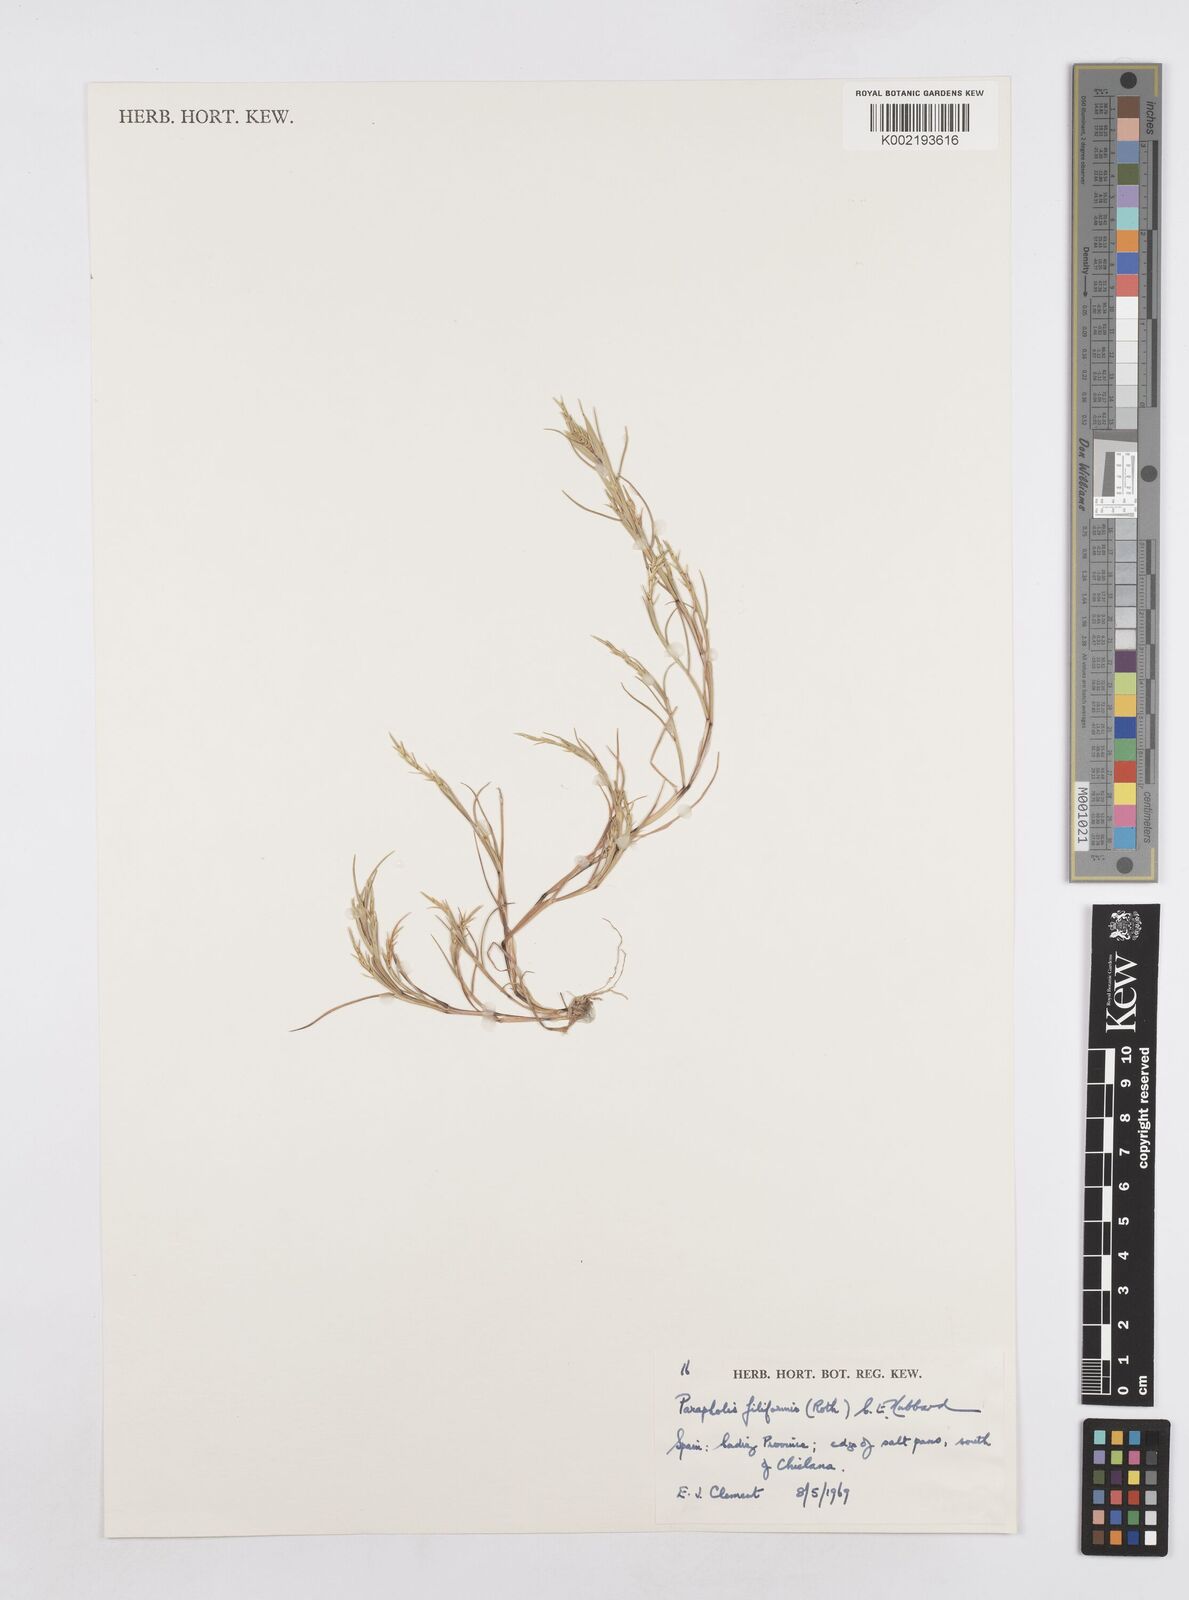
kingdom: Plantae
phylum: Tracheophyta
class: Liliopsida
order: Poales
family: Poaceae
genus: Parapholis
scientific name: Parapholis filiformis
